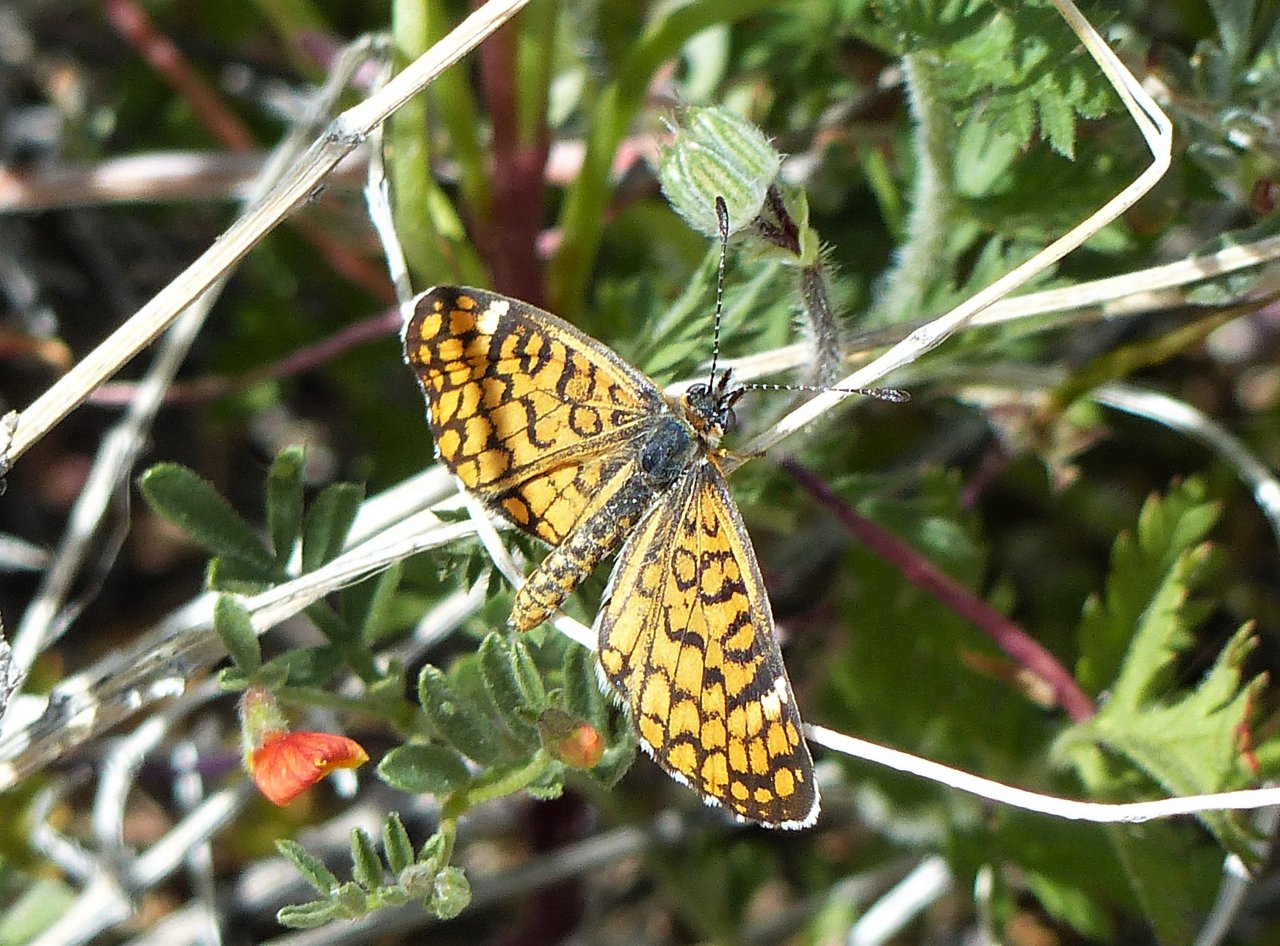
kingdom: Animalia
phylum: Arthropoda
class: Insecta
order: Lepidoptera
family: Nymphalidae
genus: Dymasia
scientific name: Dymasia dymas
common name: Tiny Checkerspot
